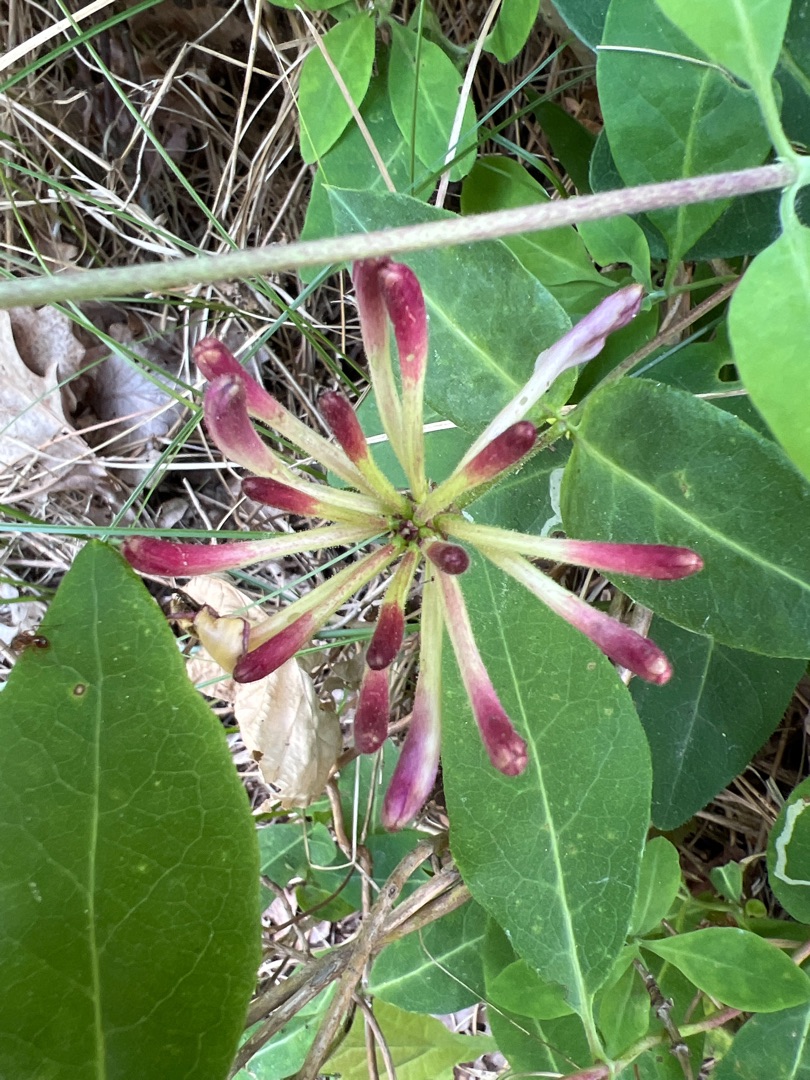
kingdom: Plantae
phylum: Tracheophyta
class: Magnoliopsida
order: Dipsacales
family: Caprifoliaceae
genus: Lonicera
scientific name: Lonicera periclymenum
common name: Almindelig gedeblad
